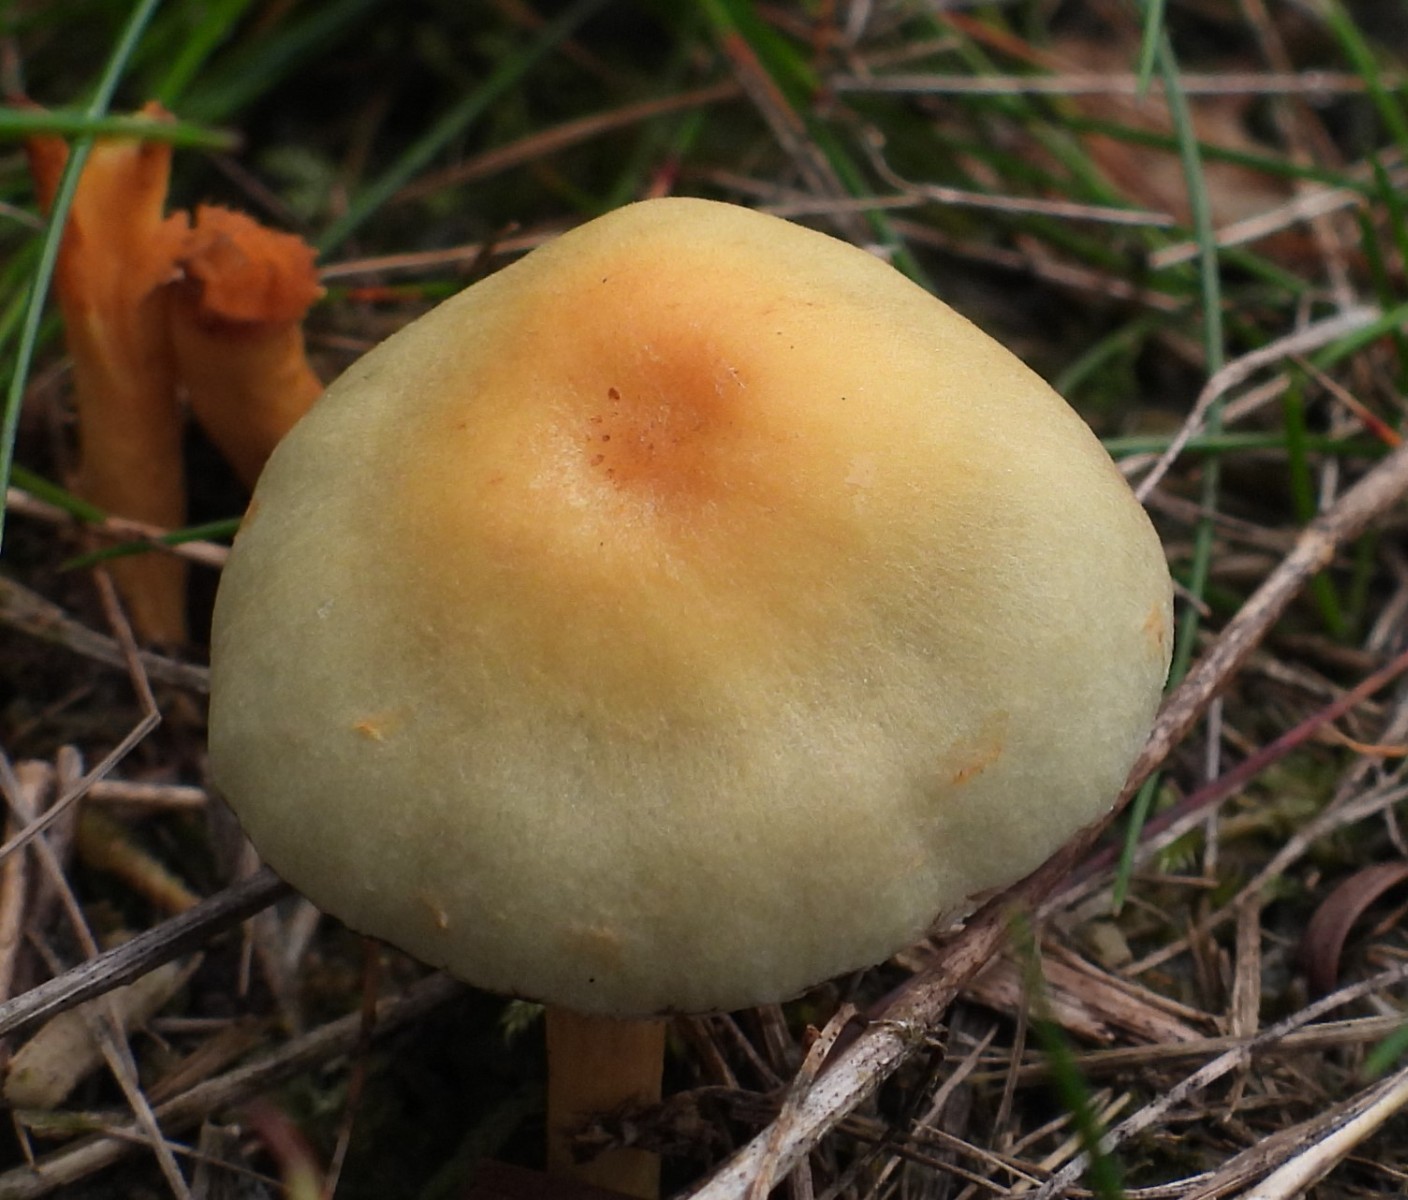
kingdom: Fungi
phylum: Basidiomycota
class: Agaricomycetes
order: Agaricales
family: Strophariaceae
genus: Hypholoma
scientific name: Hypholoma capnoides
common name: gran-svovlhat
